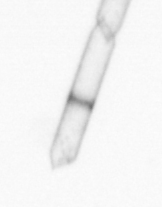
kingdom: Chromista
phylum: Ochrophyta
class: Bacillariophyceae
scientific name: Bacillariophyceae
